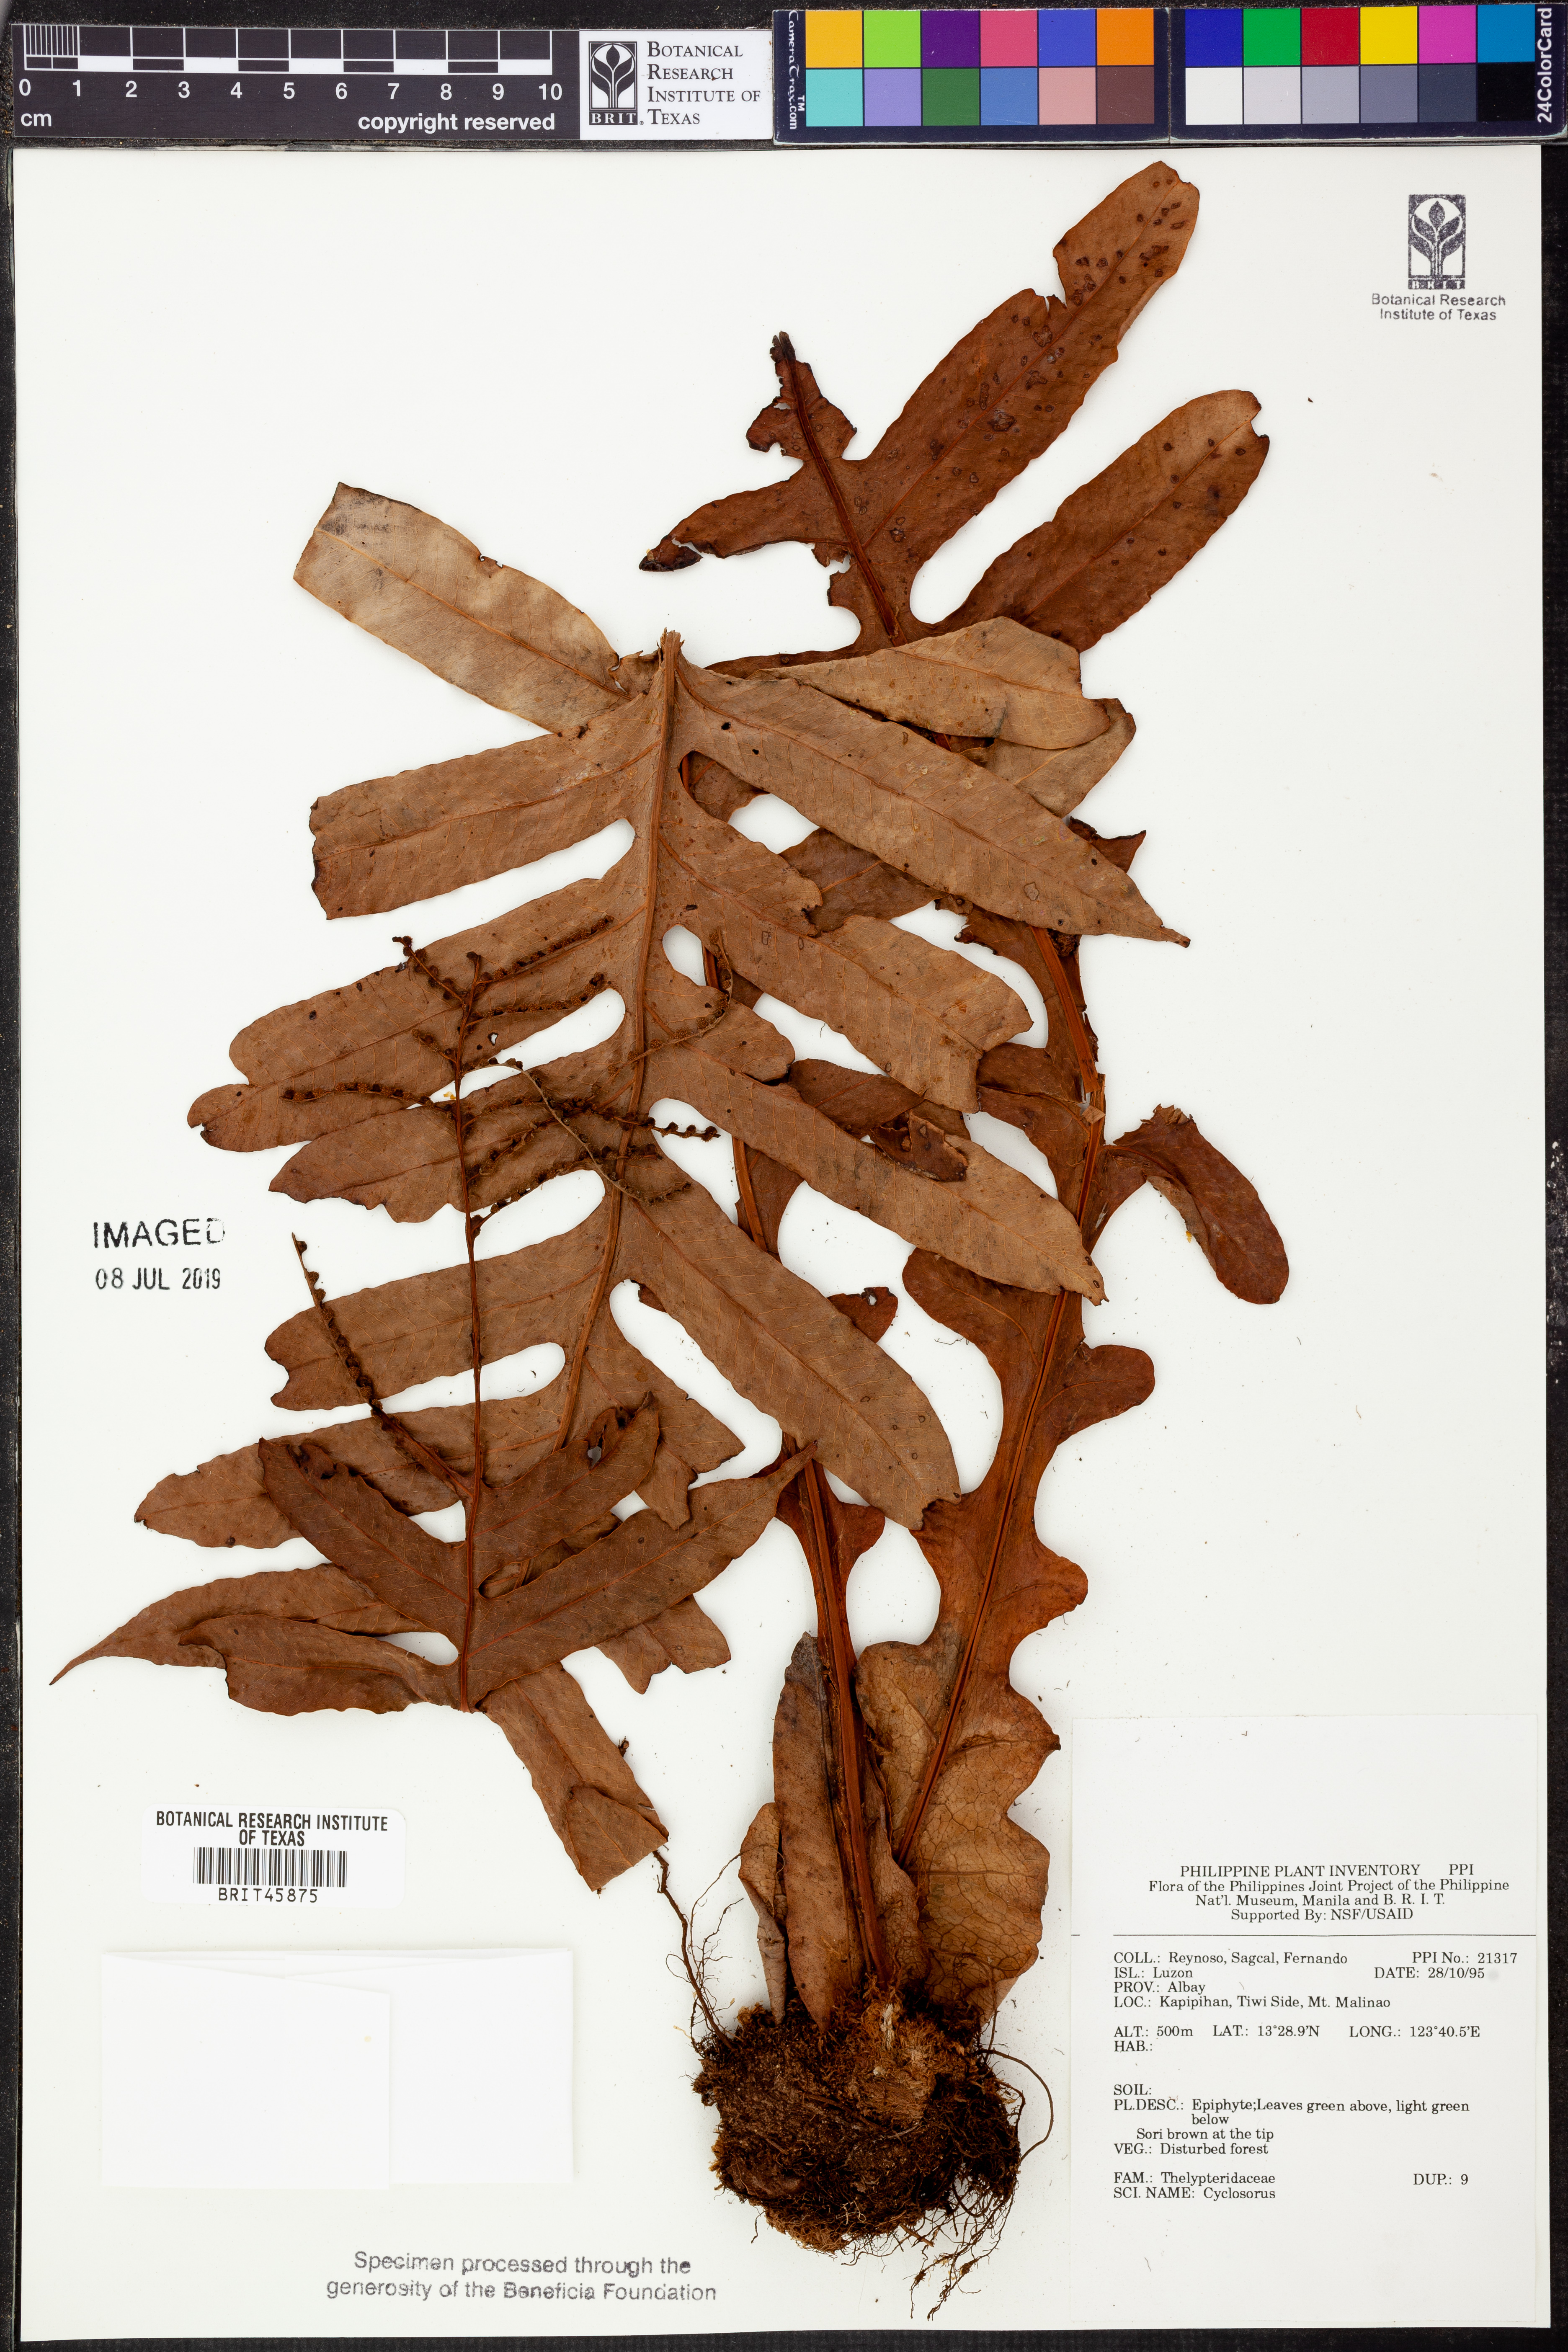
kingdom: Plantae
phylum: Tracheophyta
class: Polypodiopsida
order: Polypodiales
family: Thelypteridaceae
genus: Cyclosorus
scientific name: Cyclosorus
